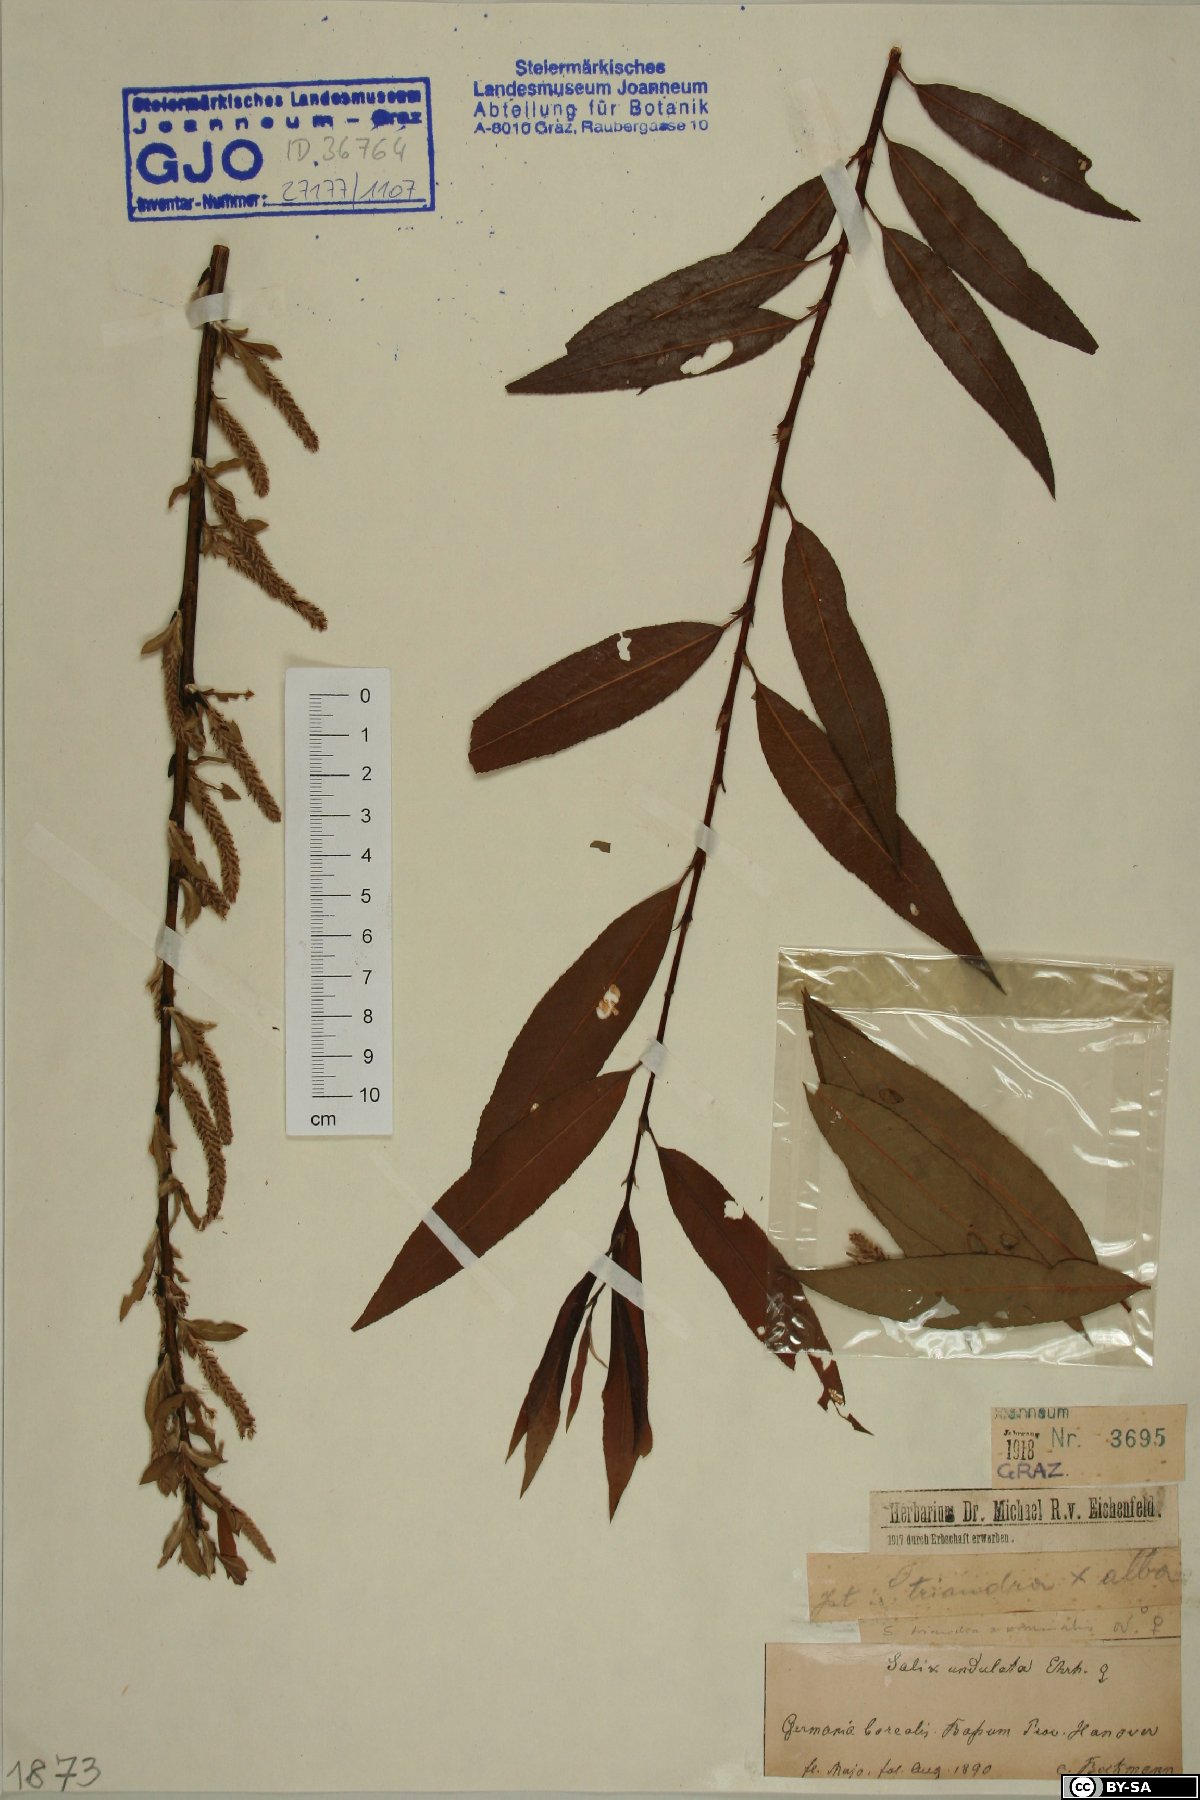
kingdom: Plantae
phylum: Tracheophyta
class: Magnoliopsida
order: Malpighiales
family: Salicaceae
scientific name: Salicaceae
